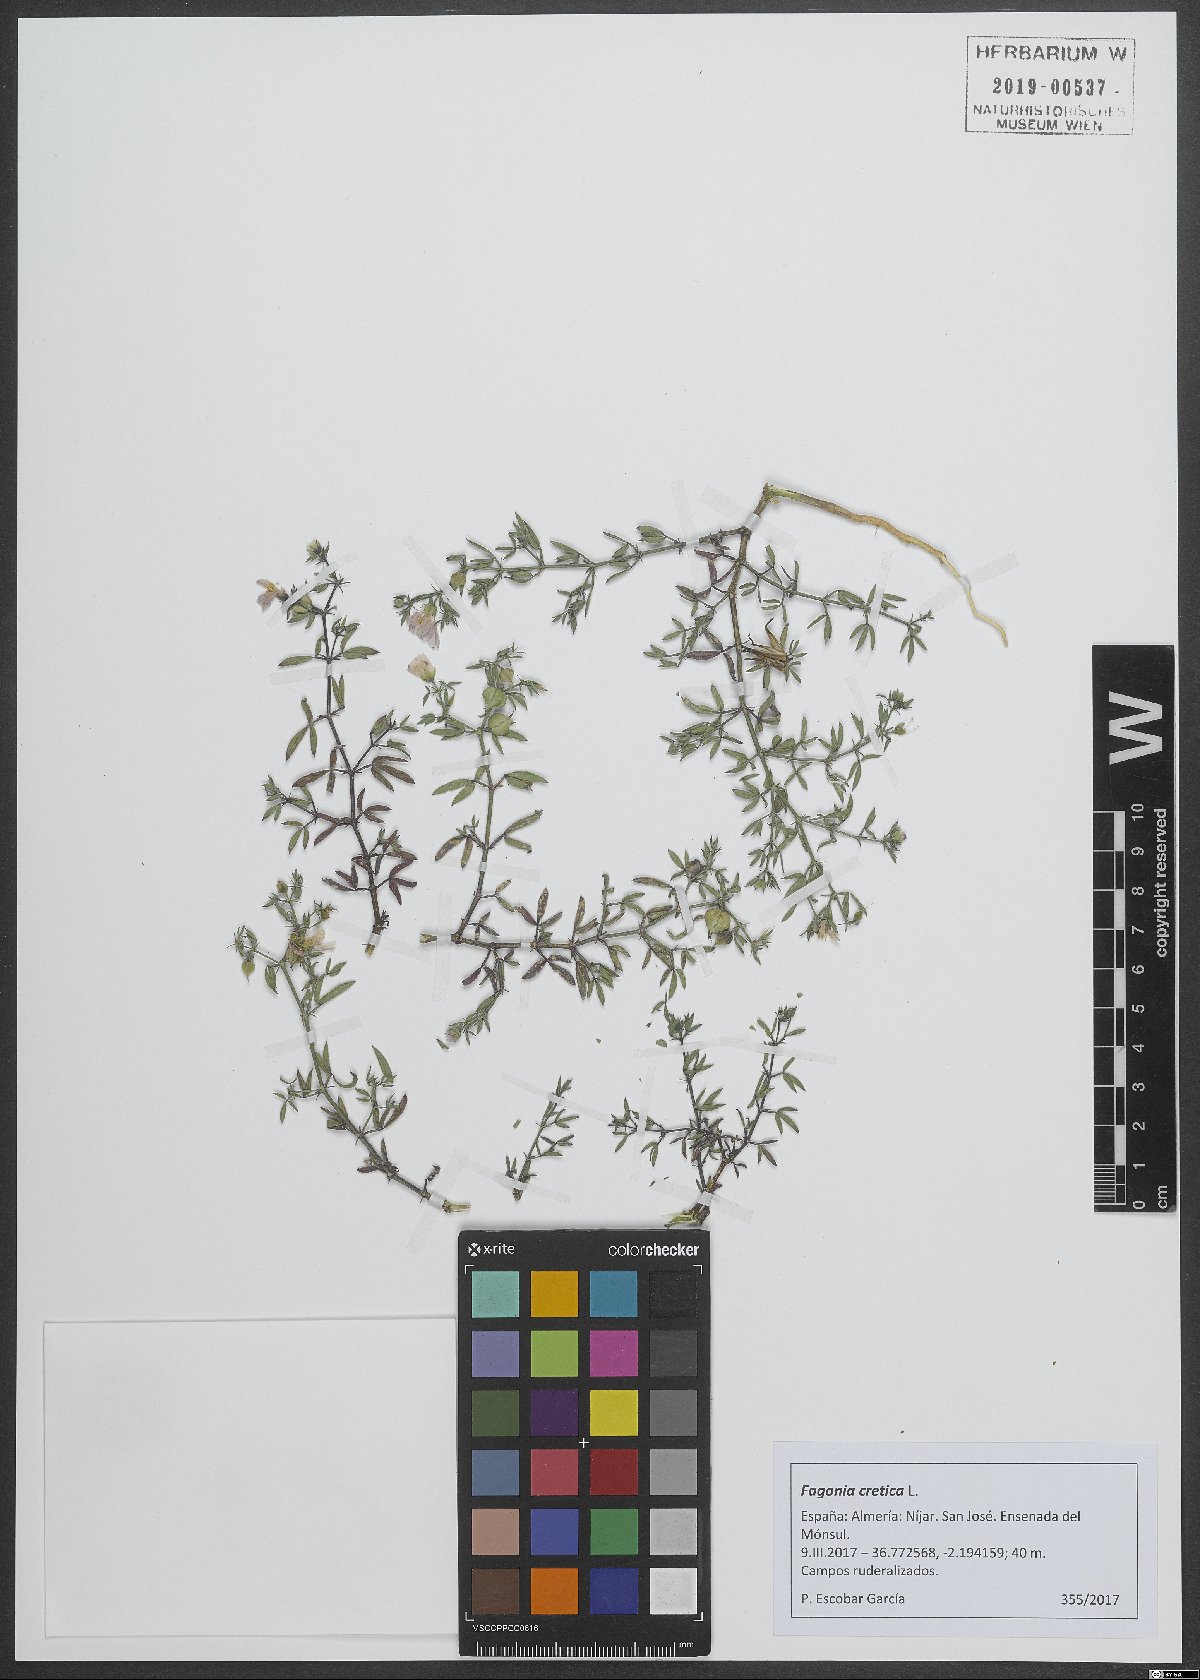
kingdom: Plantae
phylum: Tracheophyta
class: Magnoliopsida
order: Zygophyllales
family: Zygophyllaceae
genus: Fagonia
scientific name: Fagonia cretica
